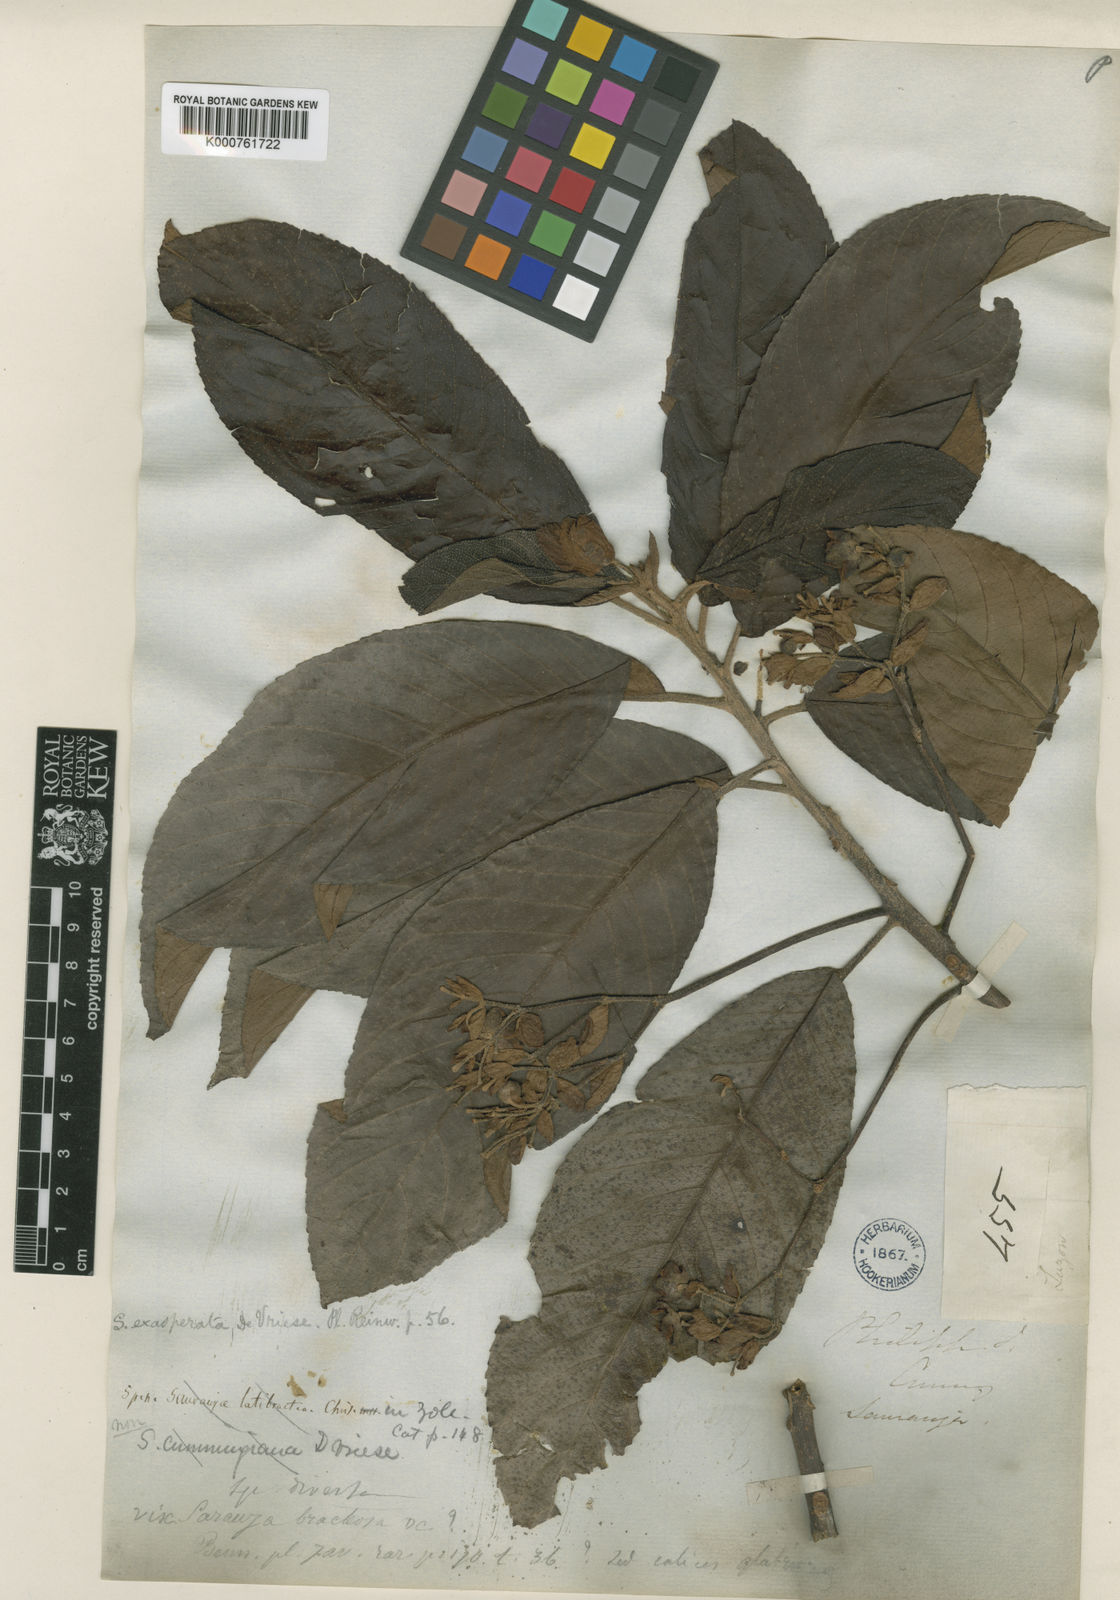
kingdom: Plantae
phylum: Tracheophyta
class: Magnoliopsida
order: Ericales
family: Actinidiaceae
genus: Saurauia
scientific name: Saurauia latibractea
